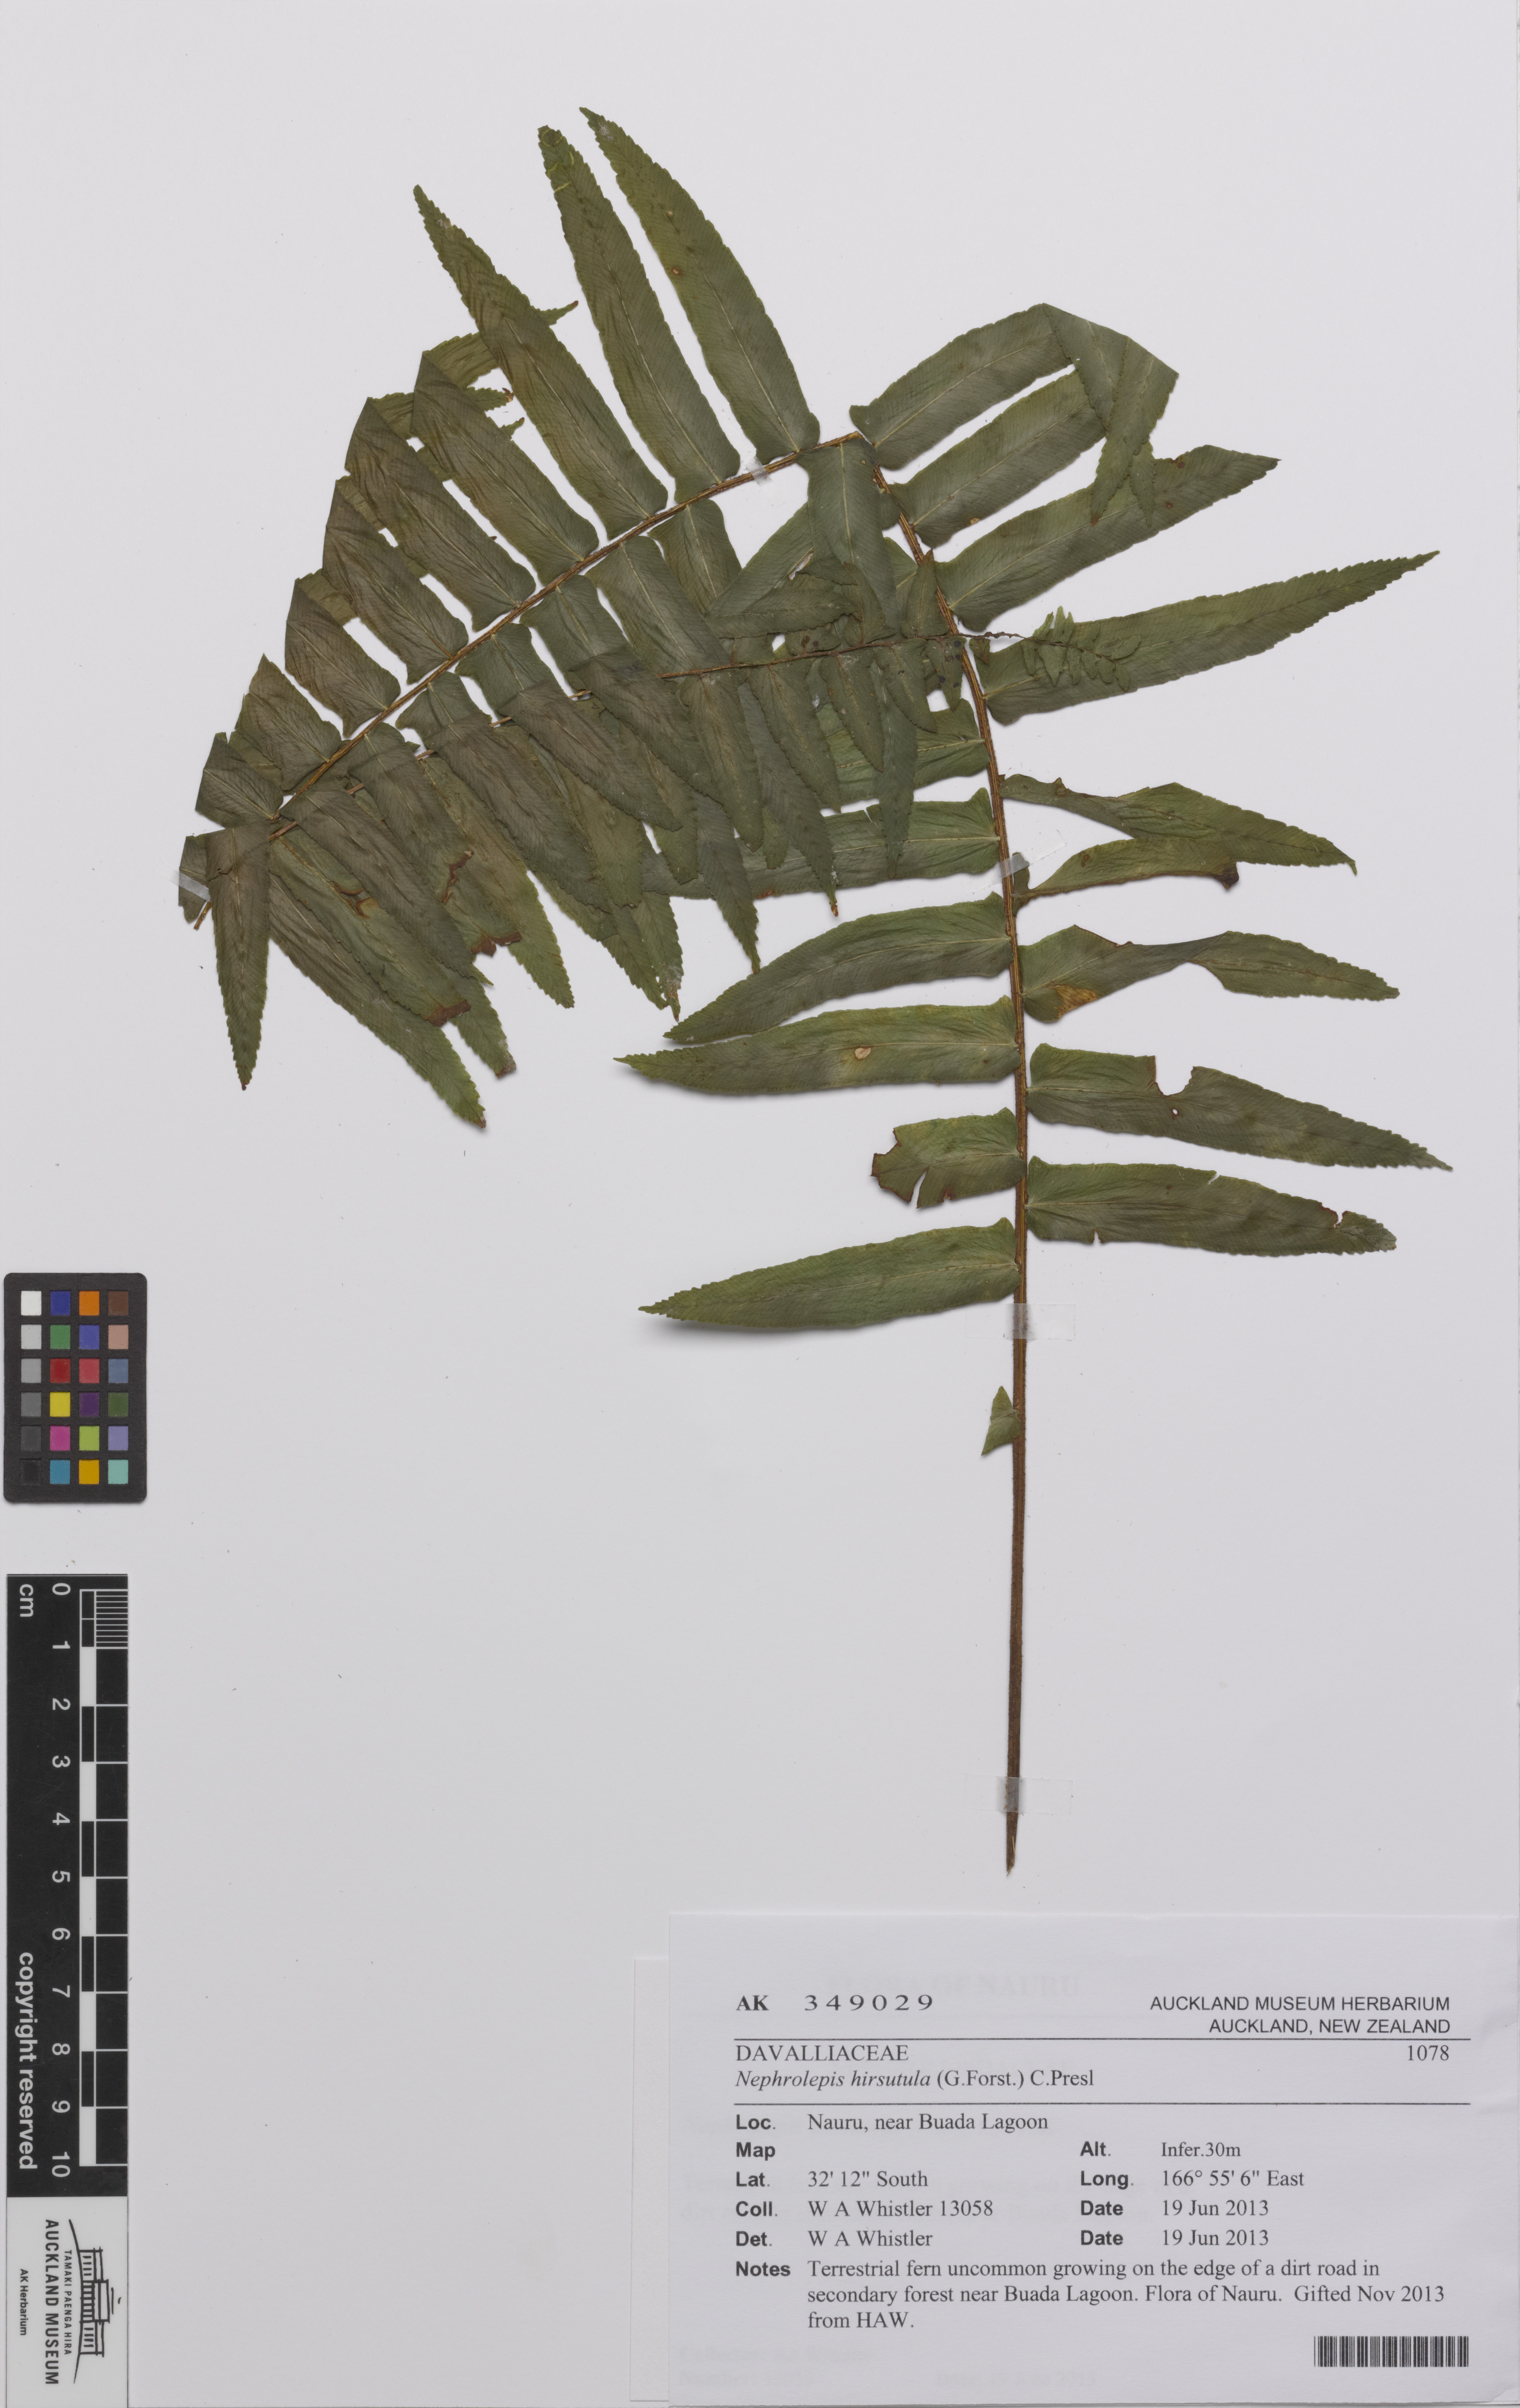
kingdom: Plantae
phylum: Tracheophyta
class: Polypodiopsida
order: Polypodiales
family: Nephrolepidaceae
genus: Nephrolepis
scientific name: Nephrolepis hirsutula
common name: Asian sword fern
